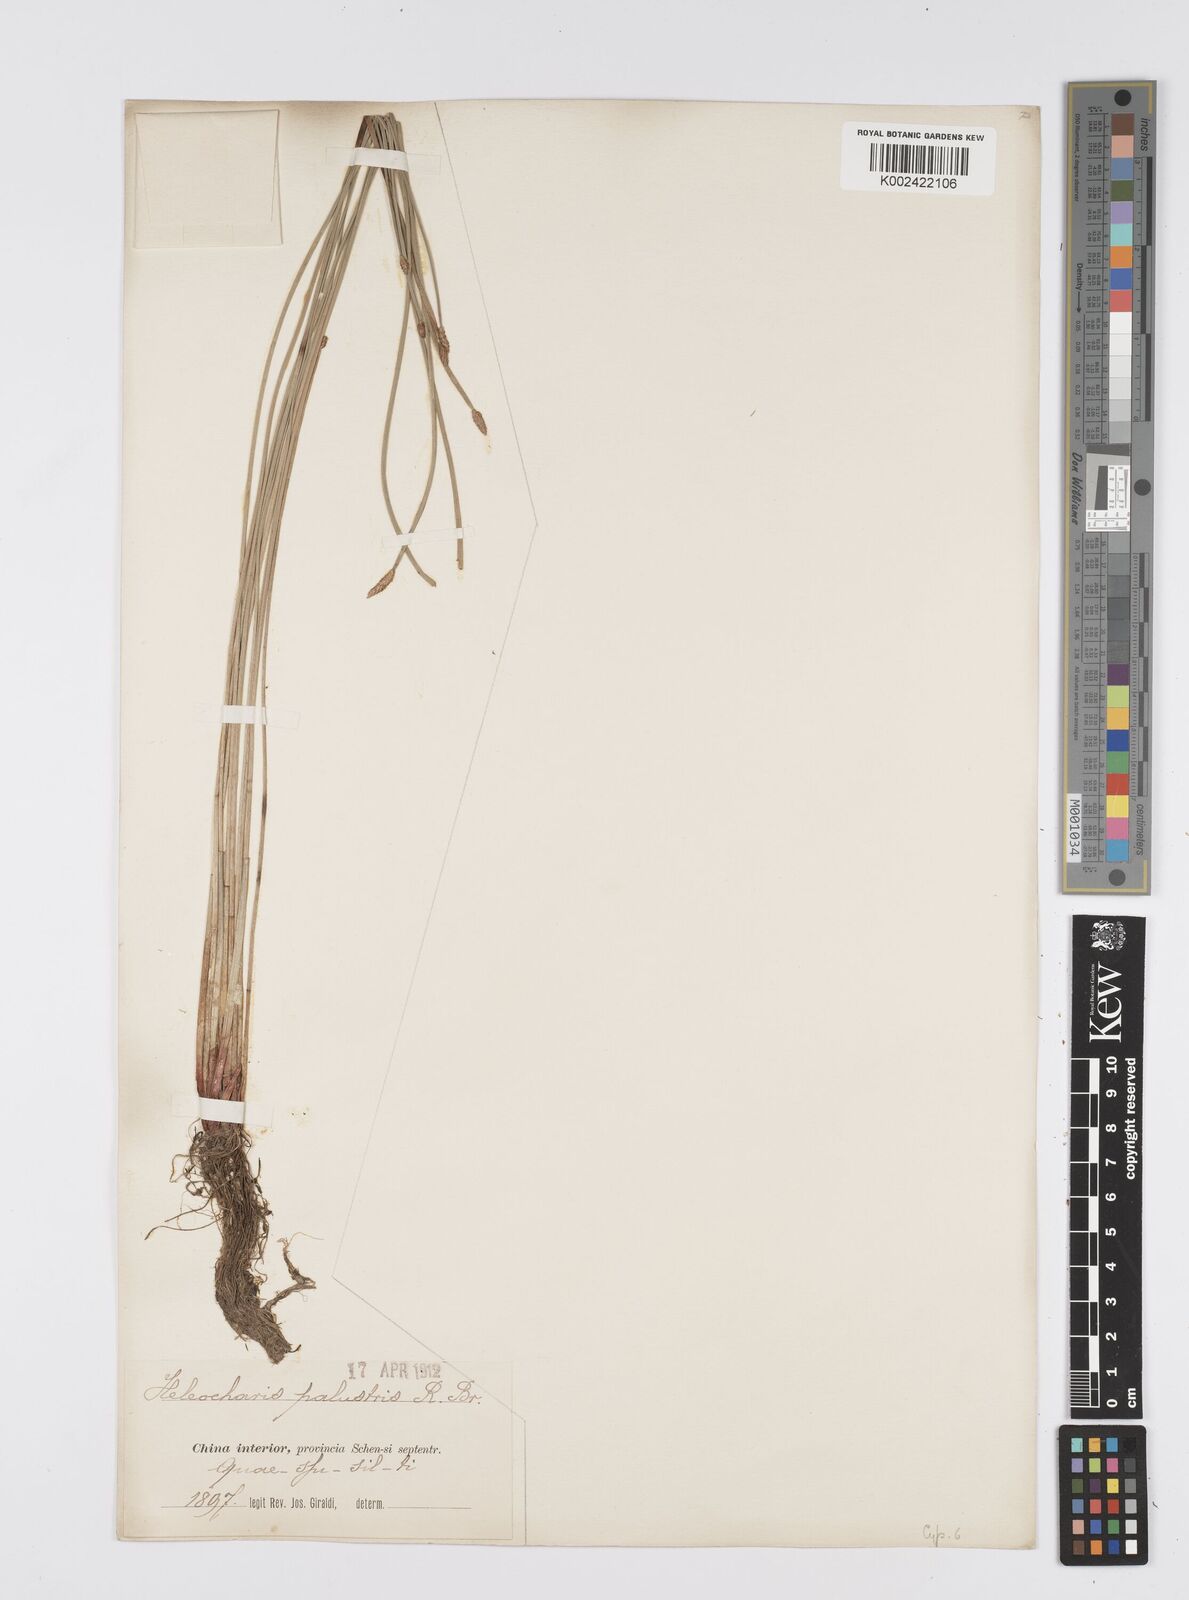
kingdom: Plantae
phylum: Tracheophyta
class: Liliopsida
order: Poales
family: Cyperaceae
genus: Eleocharis
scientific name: Eleocharis palustris
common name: Common spike-rush
